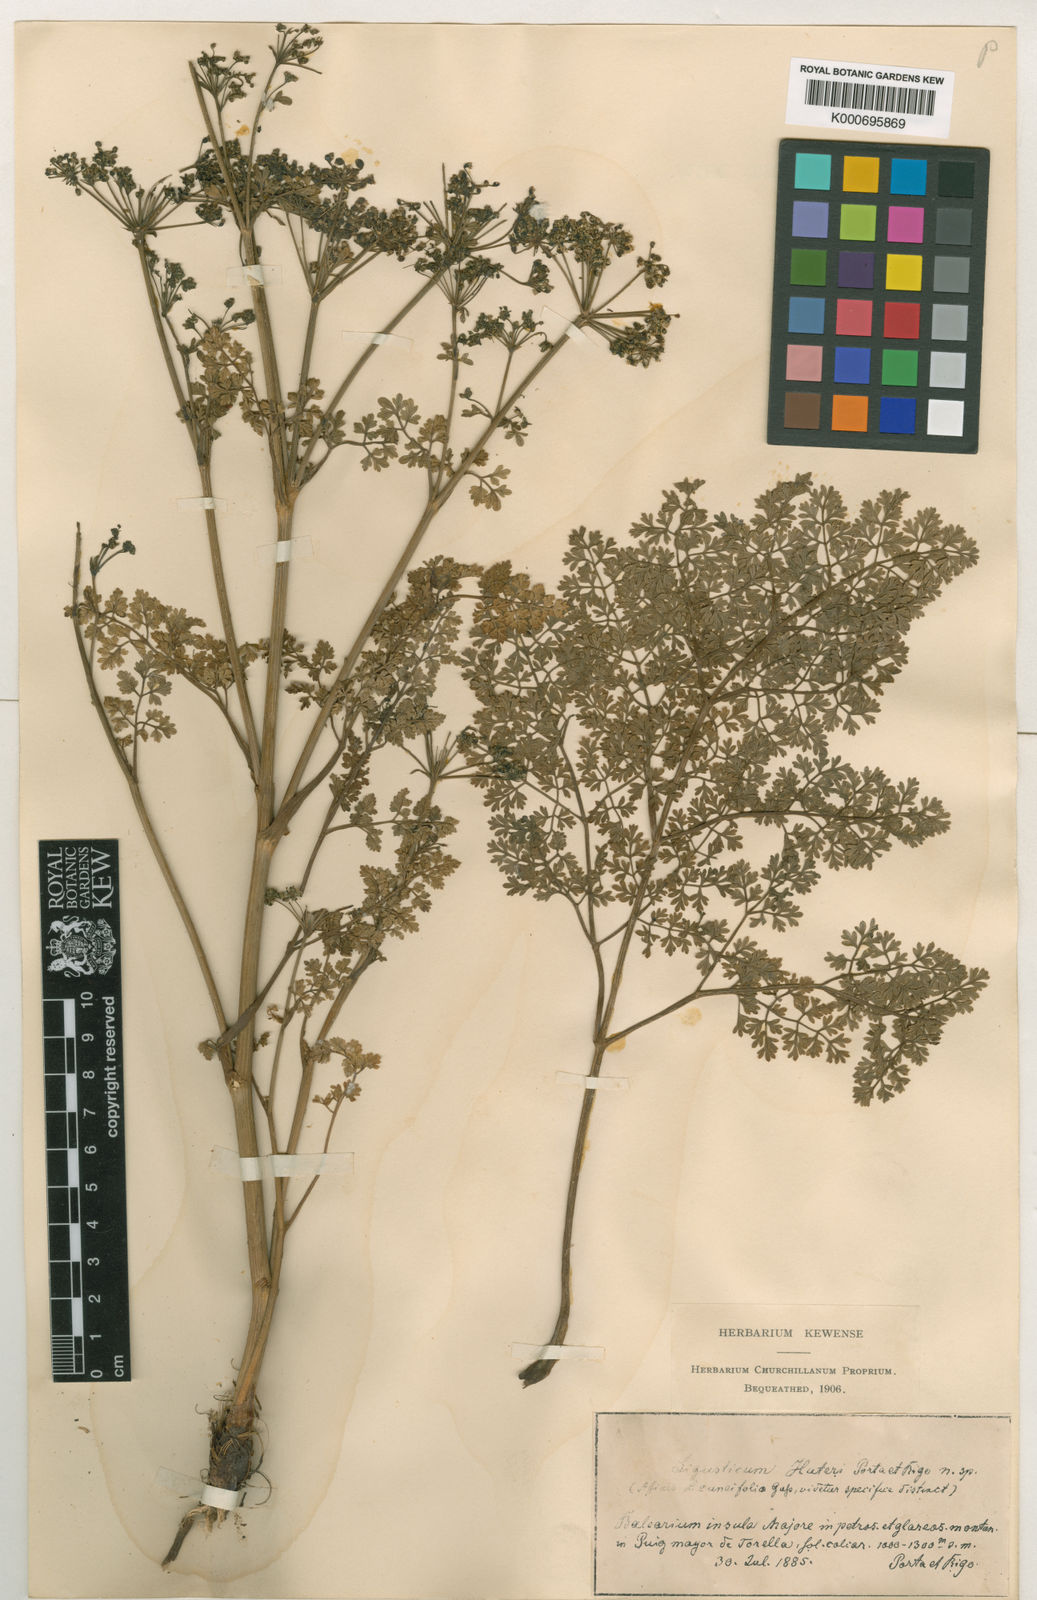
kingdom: Plantae
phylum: Tracheophyta
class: Magnoliopsida
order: Apiales
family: Apiaceae
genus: Coristospermum
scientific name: Coristospermum lucidum
